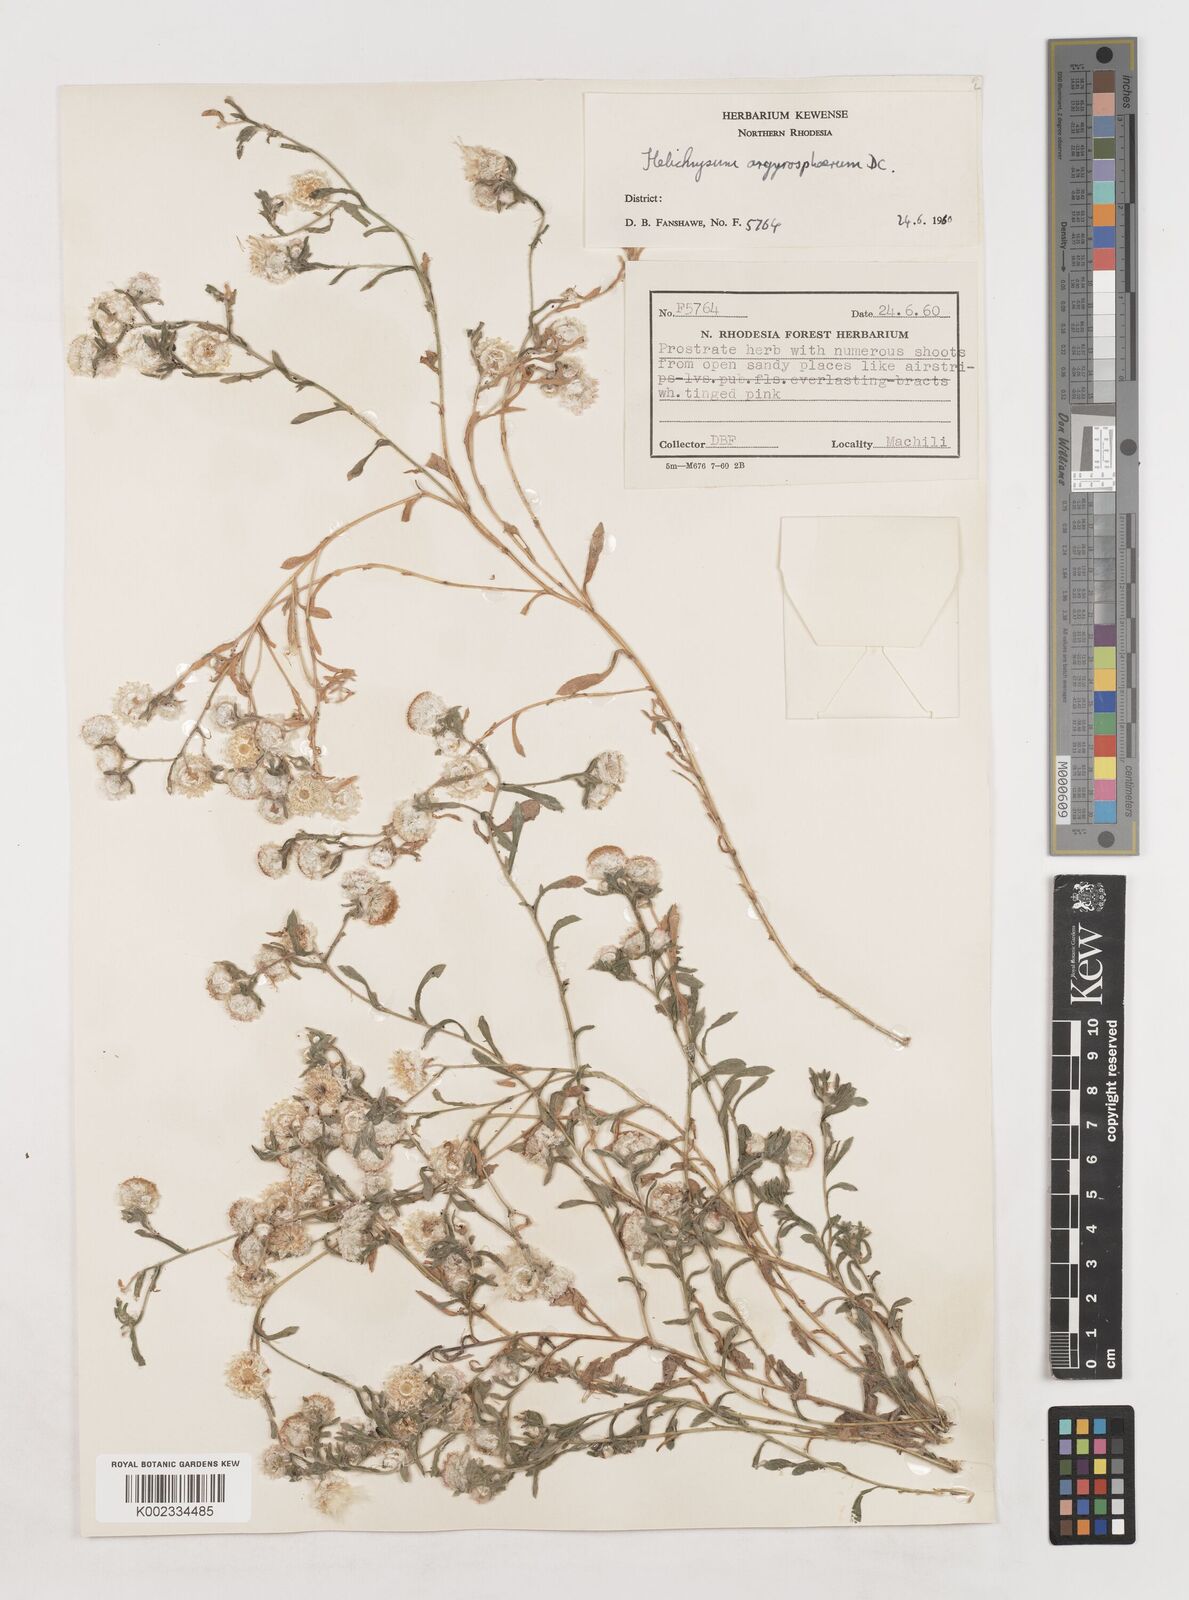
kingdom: Plantae
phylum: Tracheophyta
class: Magnoliopsida
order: Asterales
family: Asteraceae
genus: Helichrysum
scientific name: Helichrysum argyrosphaerum
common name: Wild everlasting
